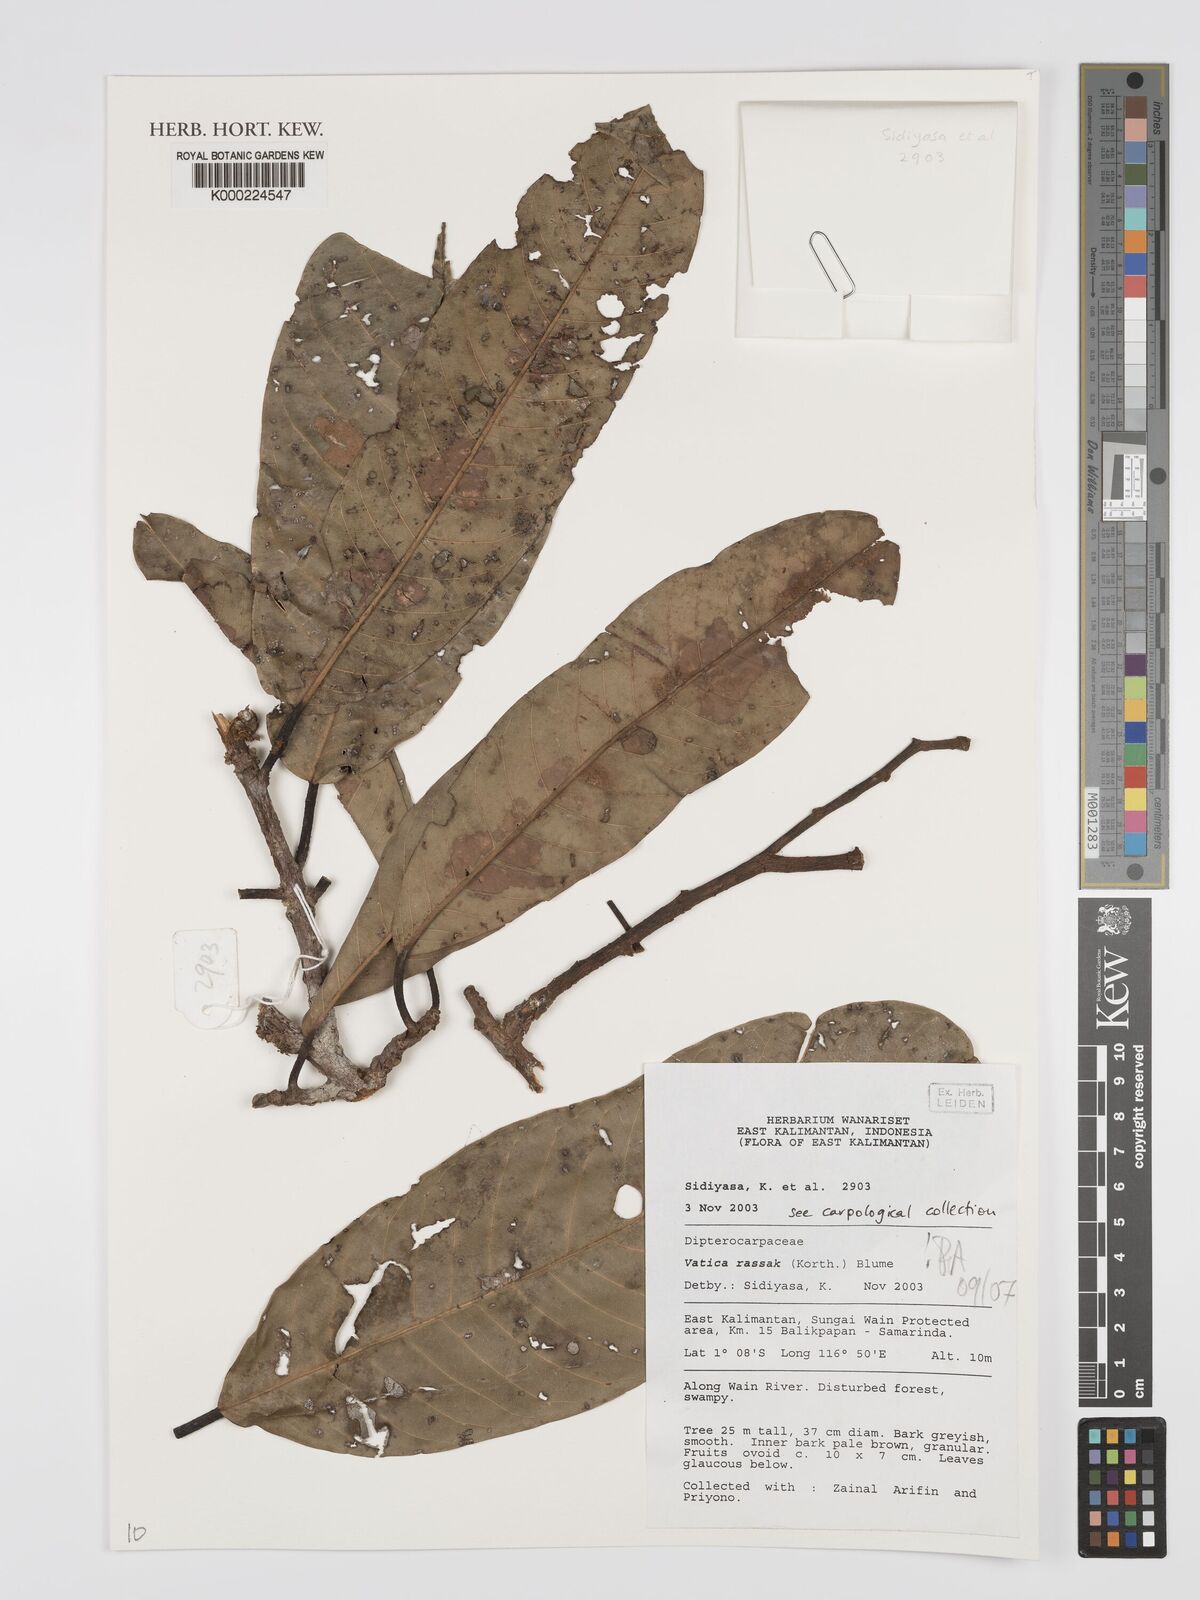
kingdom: Plantae
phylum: Tracheophyta
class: Magnoliopsida
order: Malvales
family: Dipterocarpaceae
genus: Vatica
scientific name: Vatica rassak
